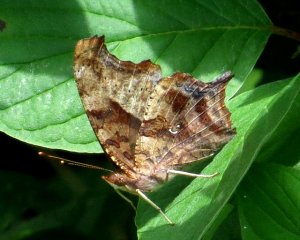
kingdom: Animalia
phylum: Arthropoda
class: Insecta
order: Lepidoptera
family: Nymphalidae
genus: Polygonia
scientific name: Polygonia interrogationis
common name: Question Mark
